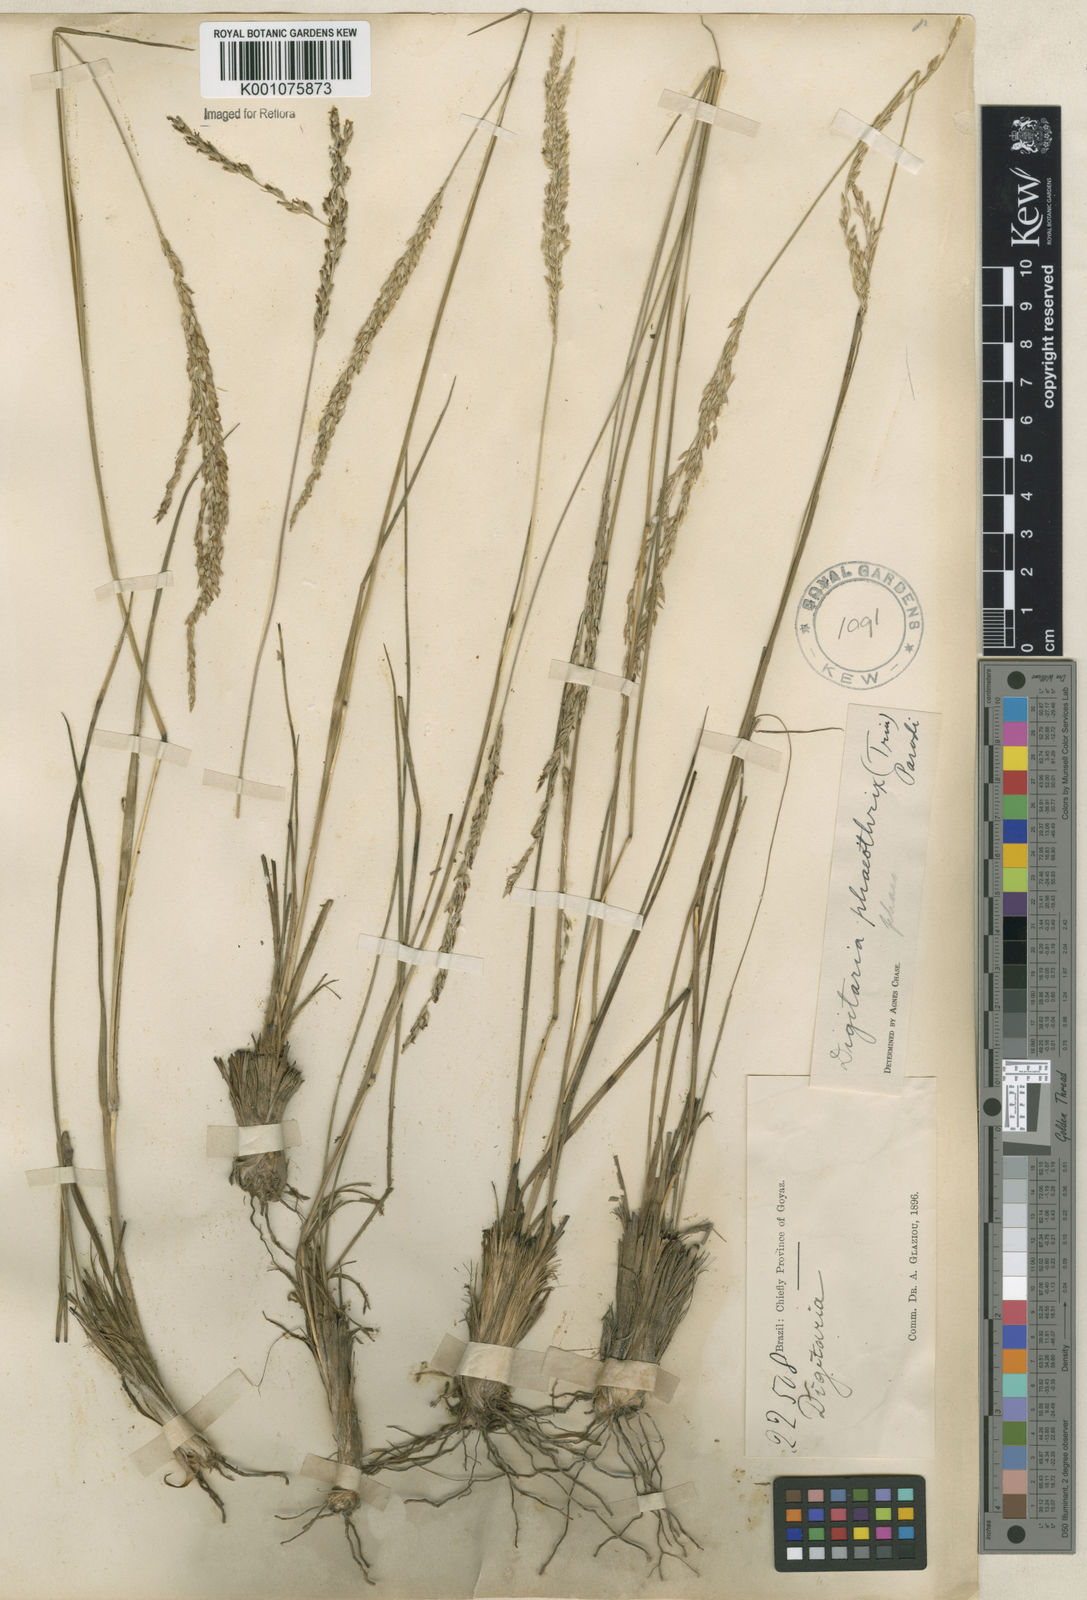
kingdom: Plantae
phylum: Tracheophyta
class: Liliopsida
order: Poales
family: Poaceae
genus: Digitaria
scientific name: Digitaria neesiana
